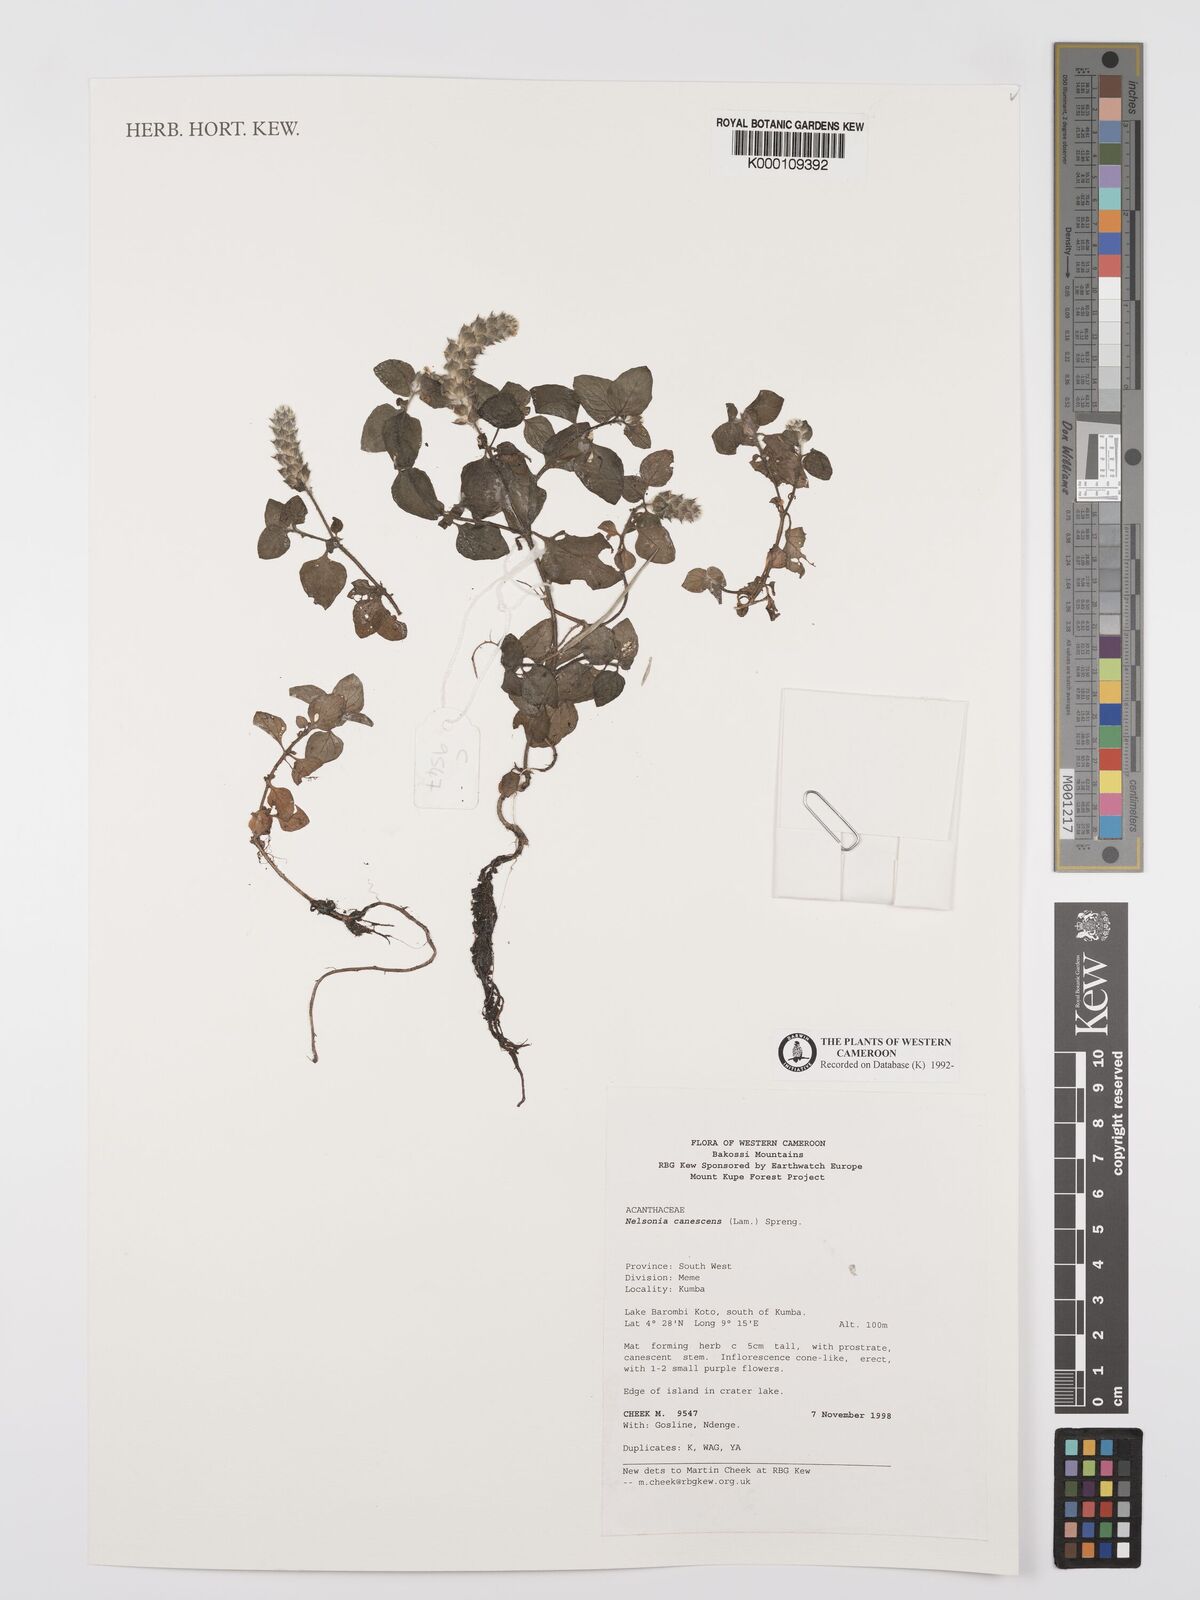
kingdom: Plantae
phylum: Tracheophyta
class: Magnoliopsida
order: Lamiales
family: Acanthaceae
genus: Nelsonia
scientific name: Nelsonia canescens
